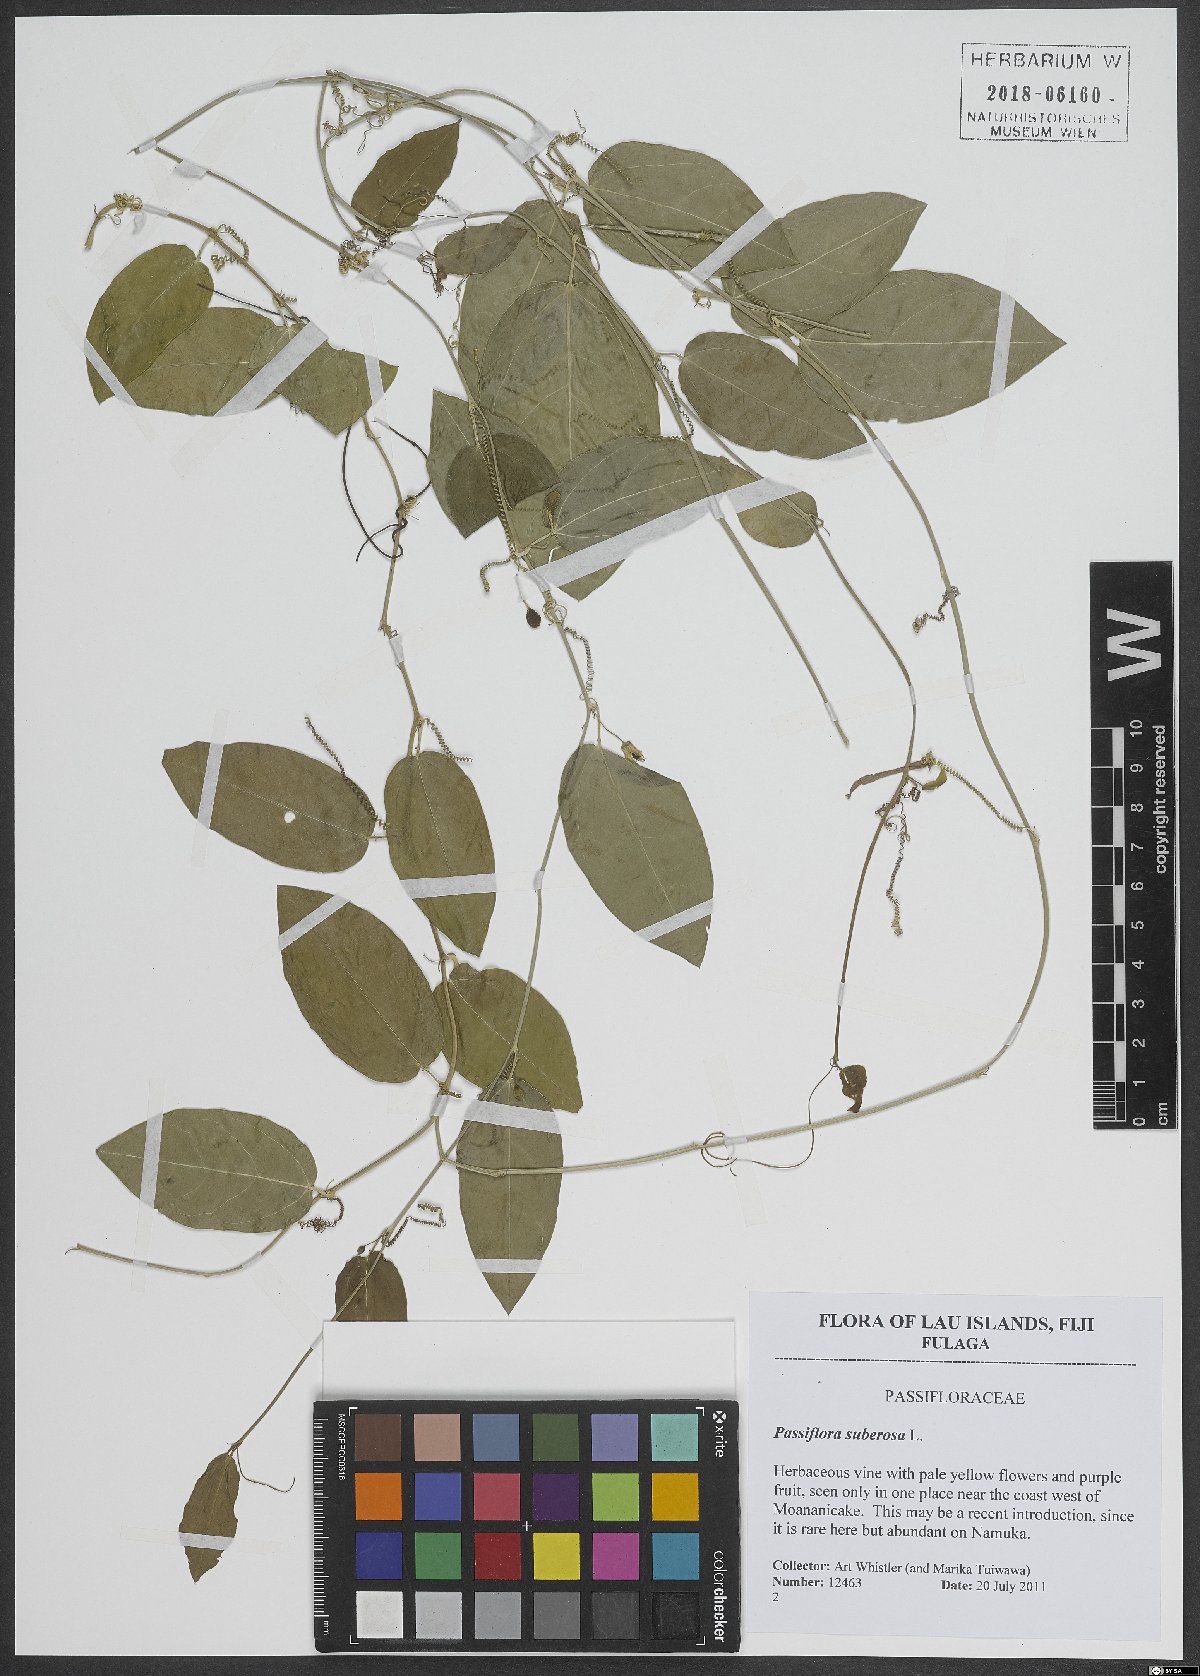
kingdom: Plantae
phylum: Tracheophyta
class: Magnoliopsida
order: Malpighiales
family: Passifloraceae
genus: Passiflora
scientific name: Passiflora suberosa
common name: Wild passionfruit
